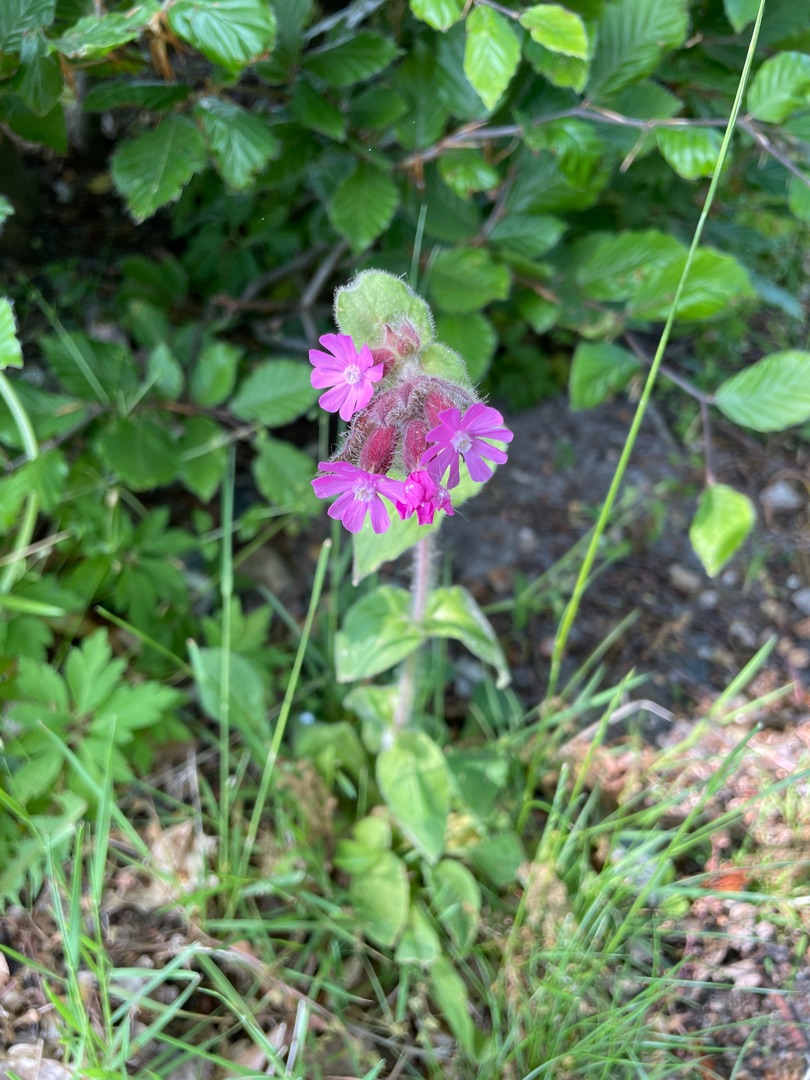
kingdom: Plantae
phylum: Tracheophyta
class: Magnoliopsida
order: Caryophyllales
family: Caryophyllaceae
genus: Silene
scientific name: Silene dioica
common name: Dagpragtstjerne
